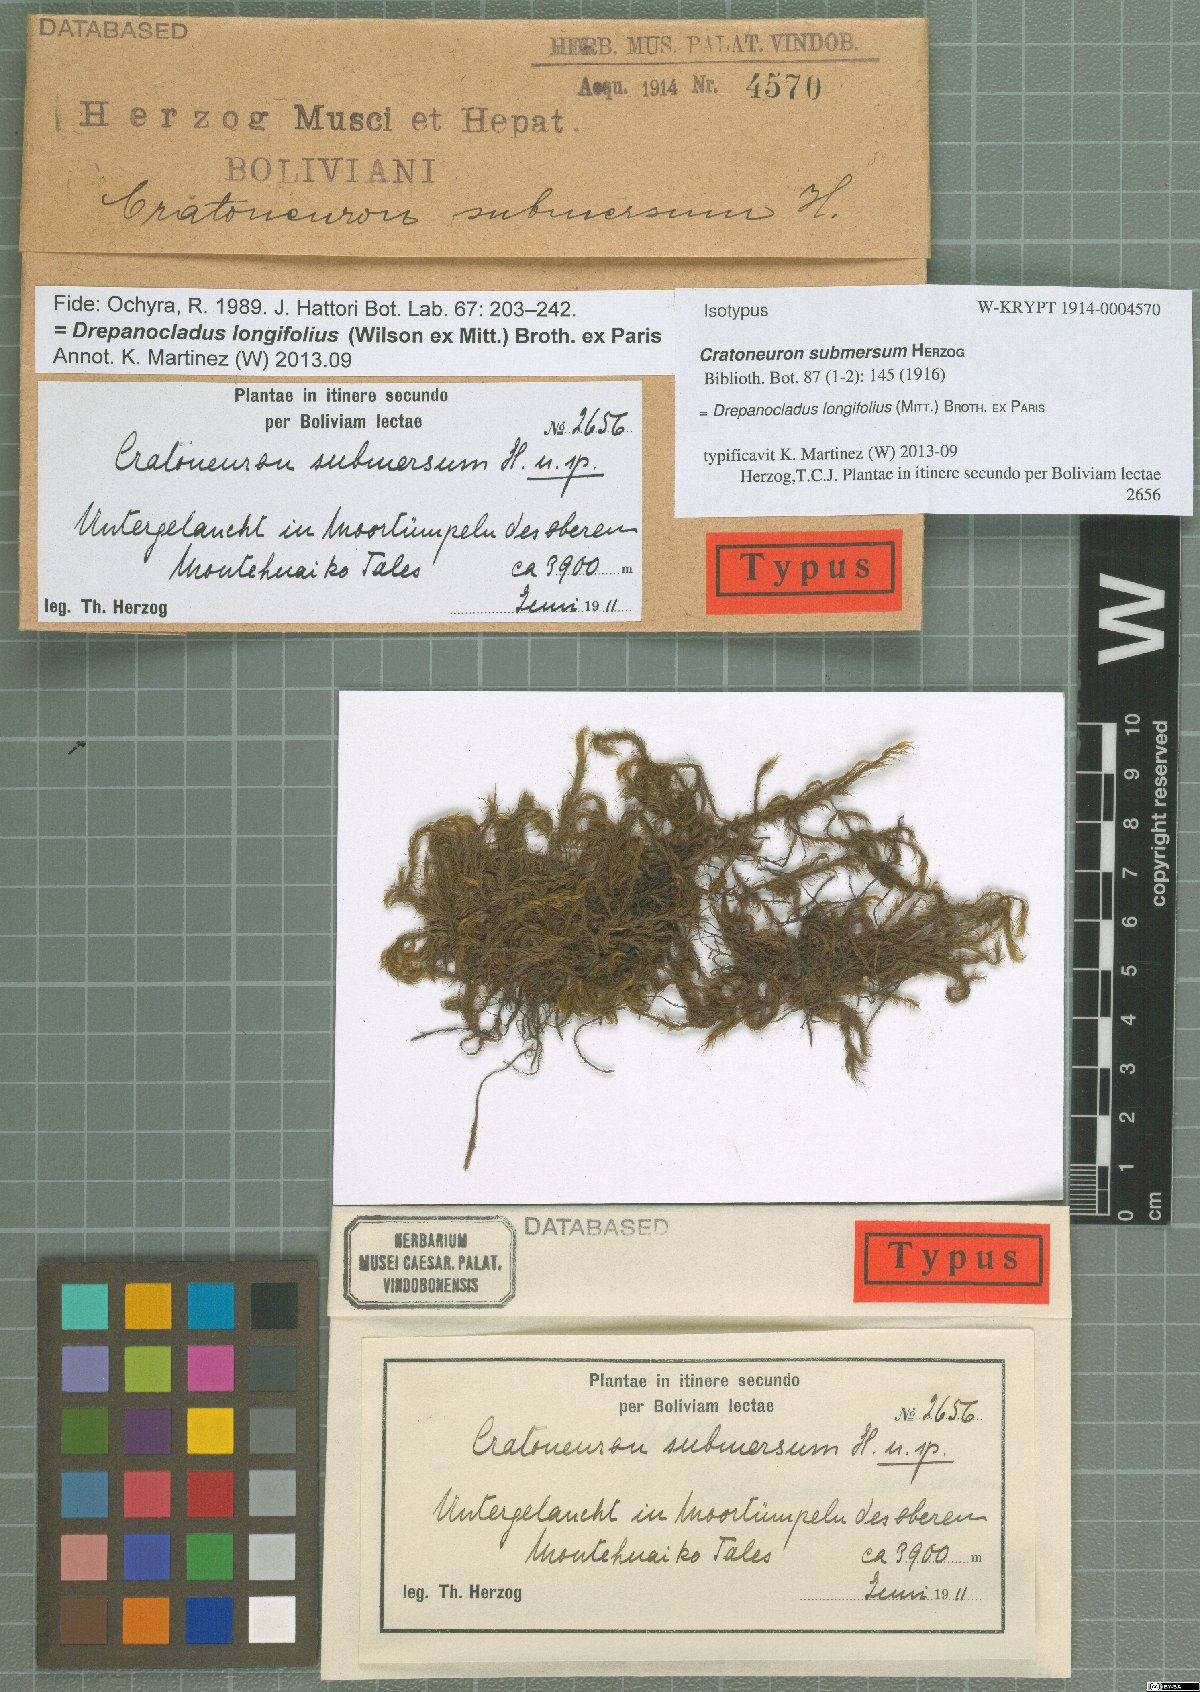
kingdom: Plantae
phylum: Bryophyta
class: Bryopsida
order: Hypnales
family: Amblystegiaceae
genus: Drepanocladus
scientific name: Drepanocladus longifolius
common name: Long-leaved hook moss
